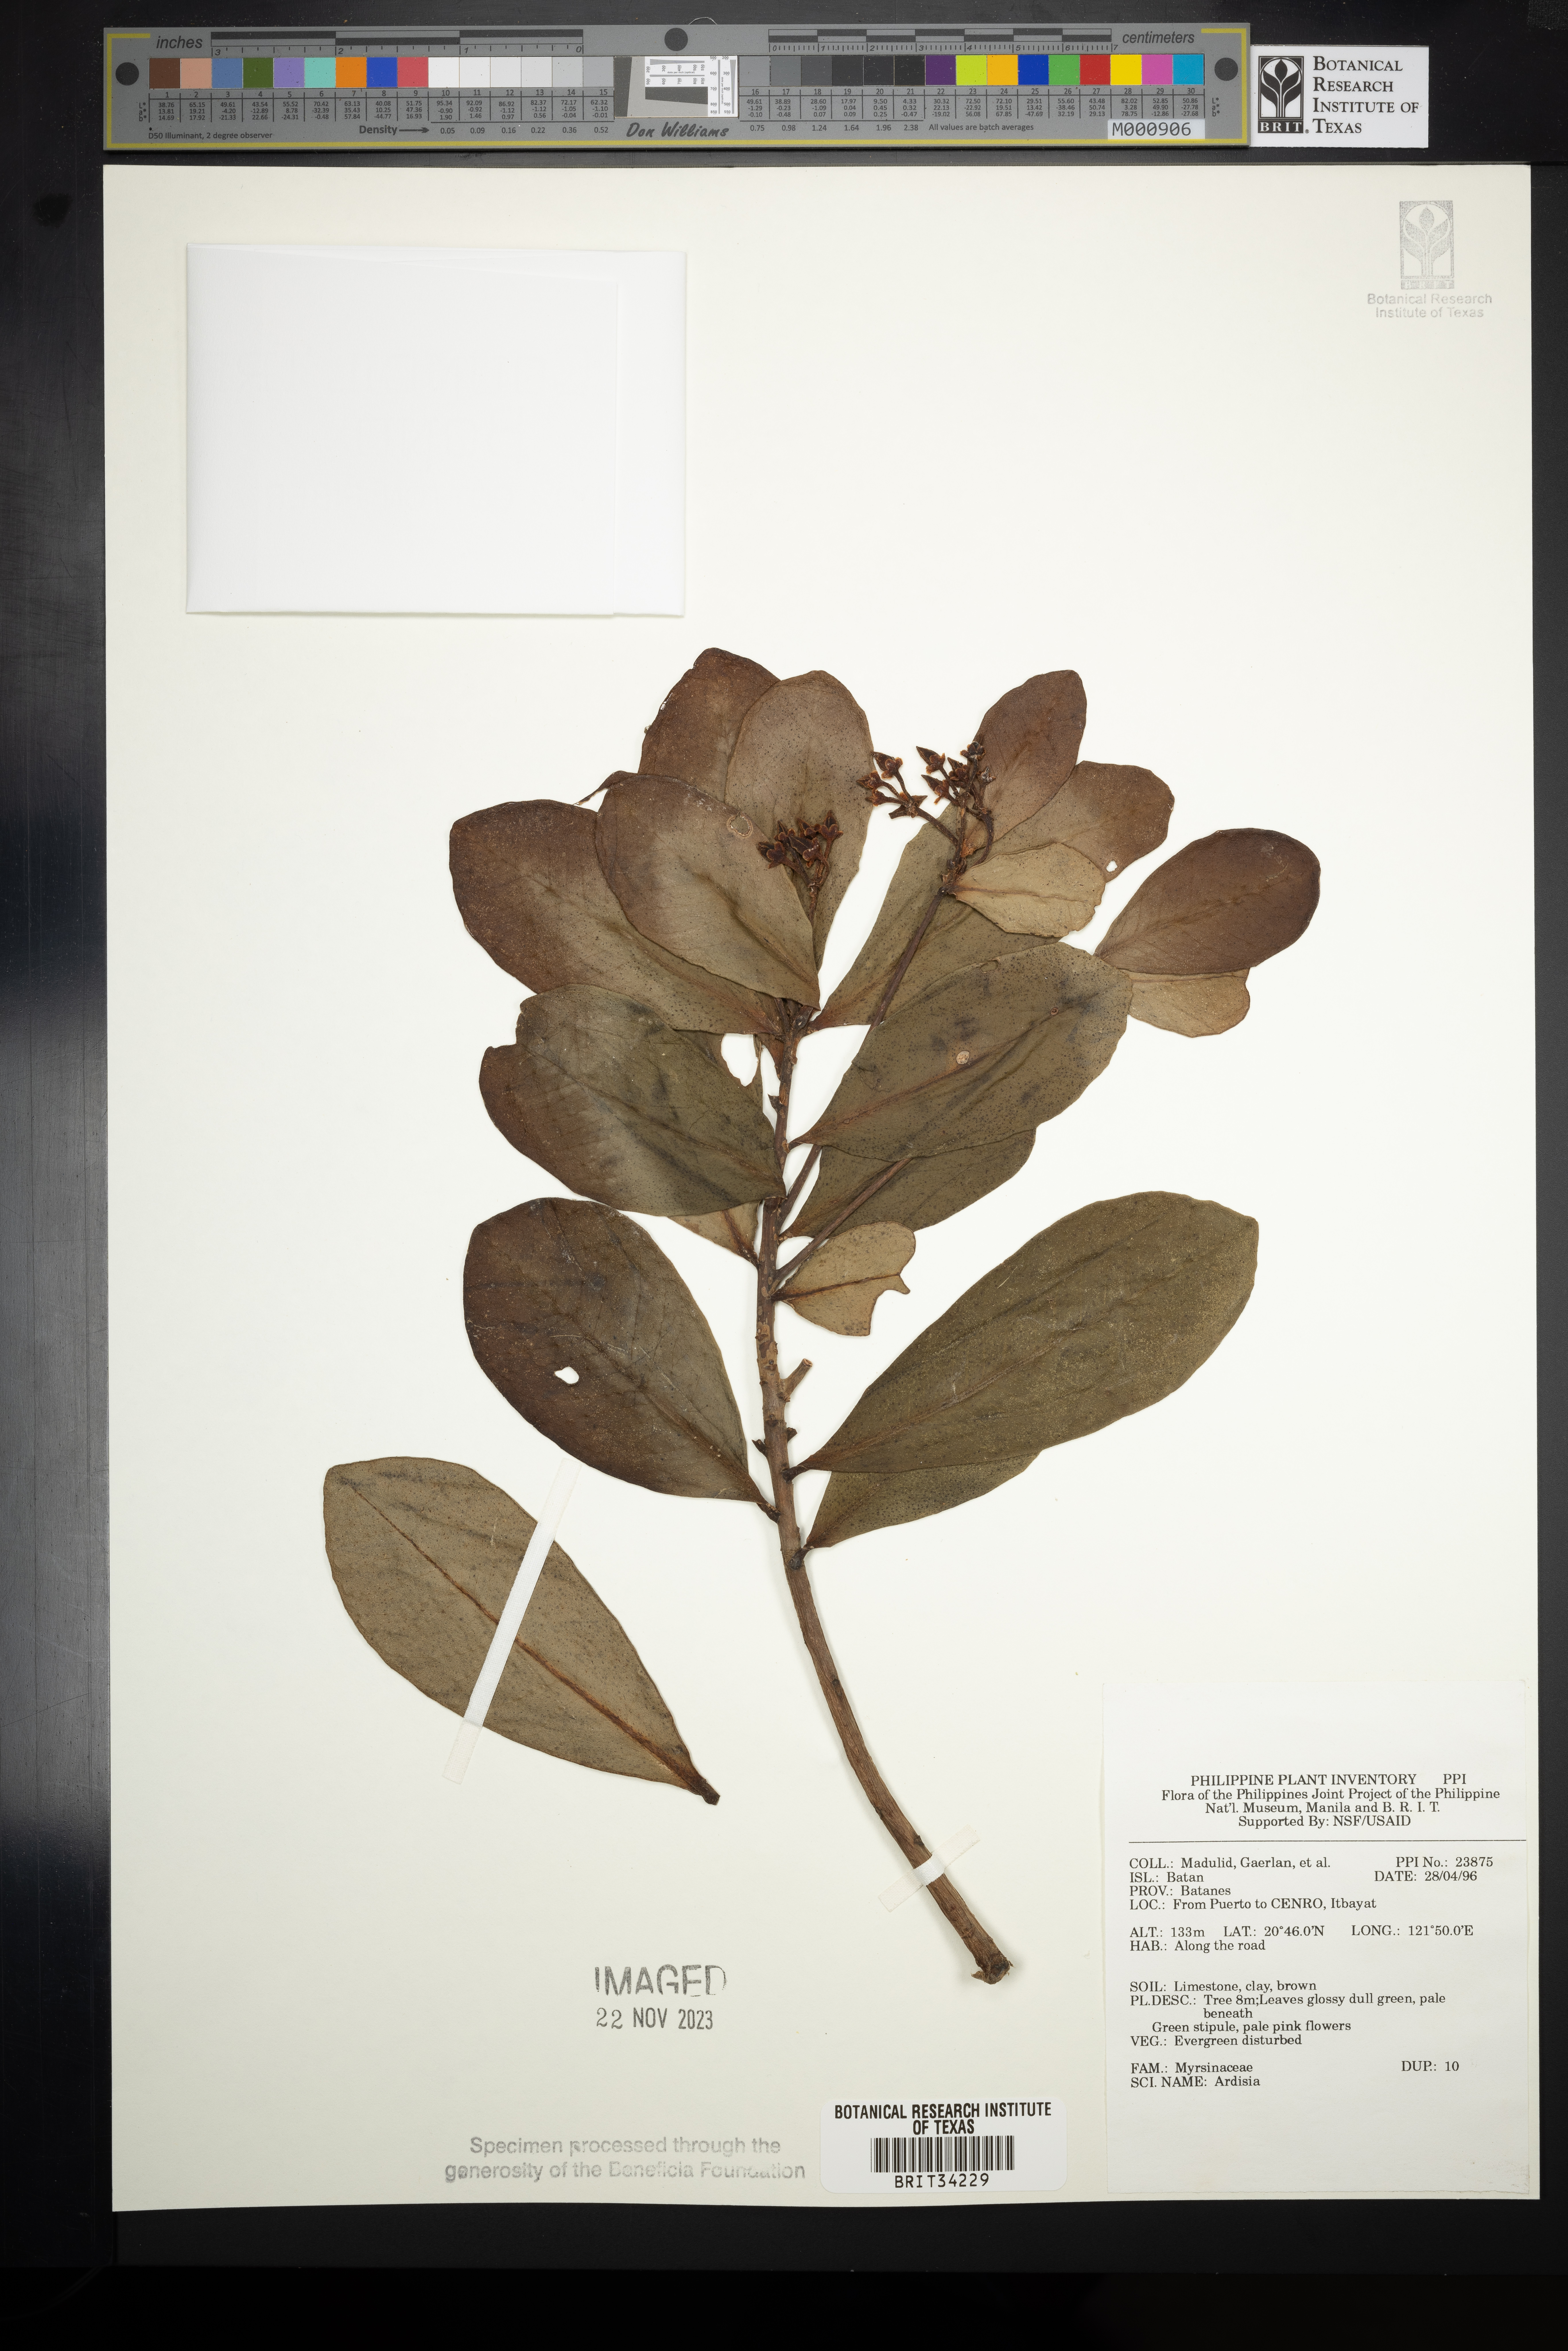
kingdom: Plantae
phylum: Tracheophyta
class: Magnoliopsida
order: Ericales
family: Primulaceae
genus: Ardisia
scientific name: Ardisia
